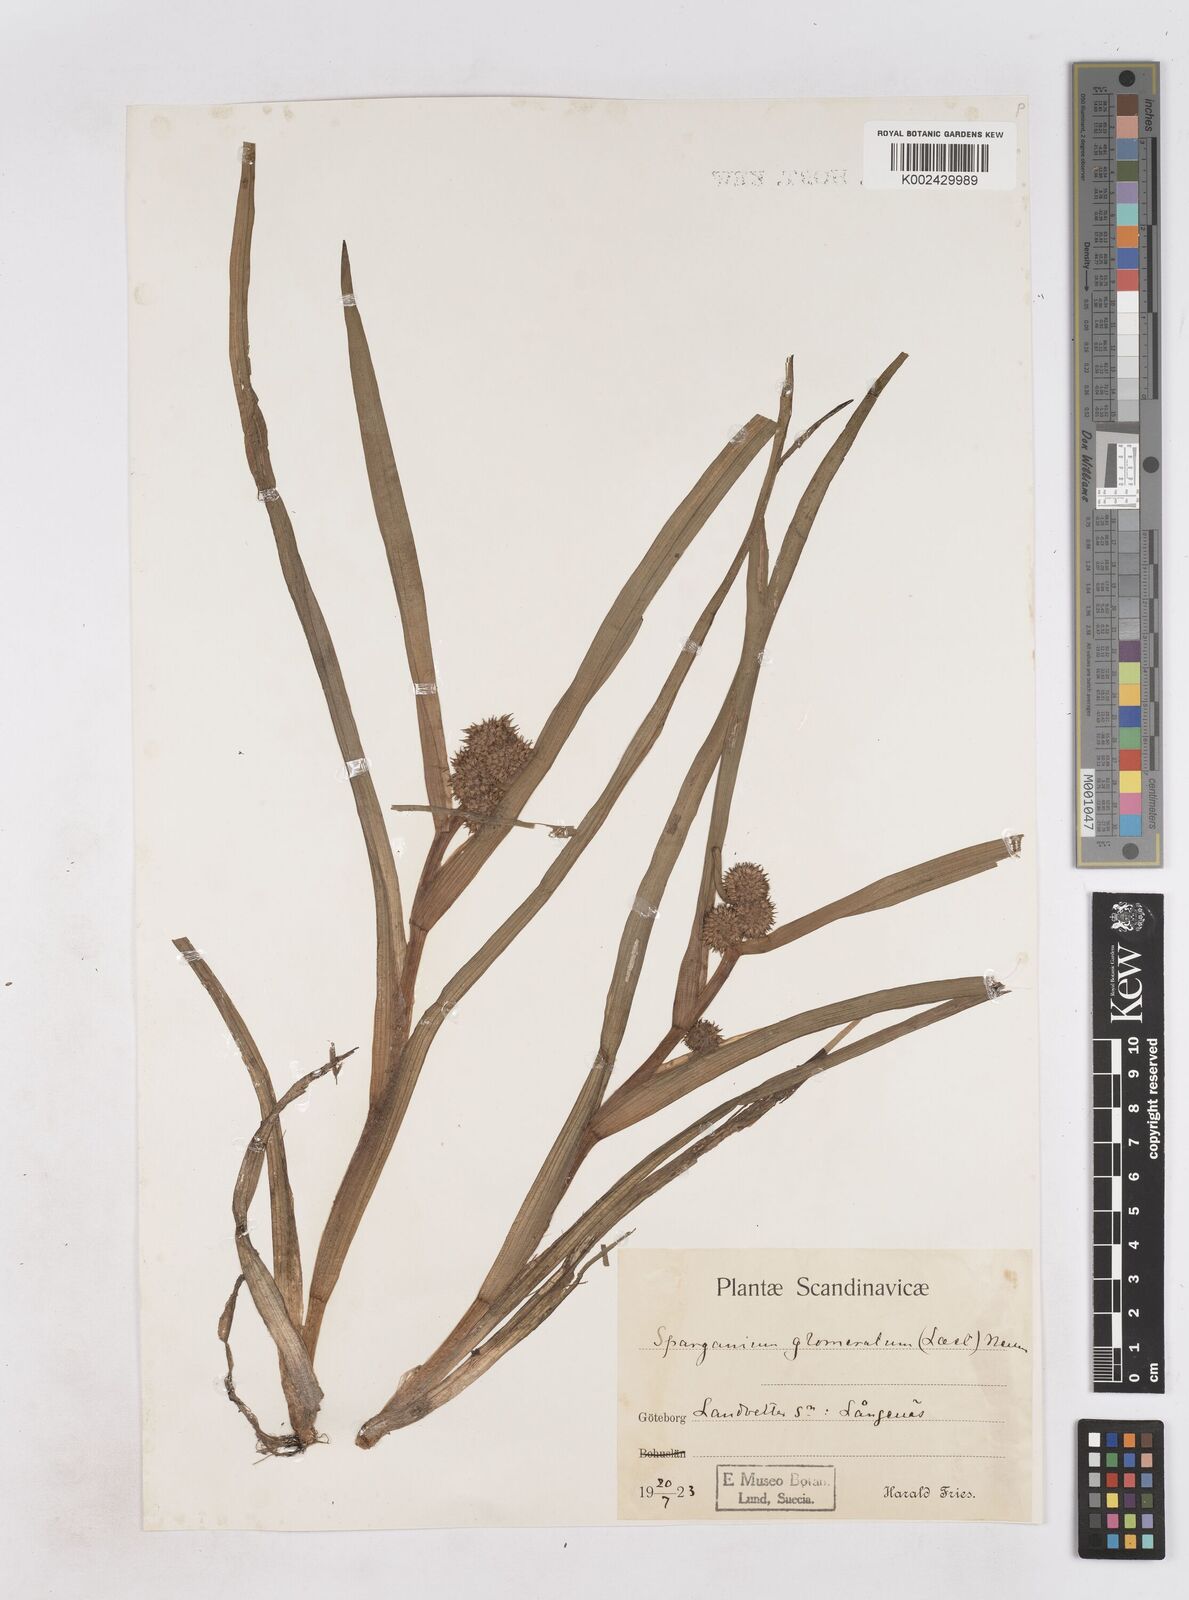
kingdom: Plantae
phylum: Tracheophyta
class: Liliopsida
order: Poales
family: Typhaceae
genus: Sparganium
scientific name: Sparganium angustifolium
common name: Floating bur-reed
